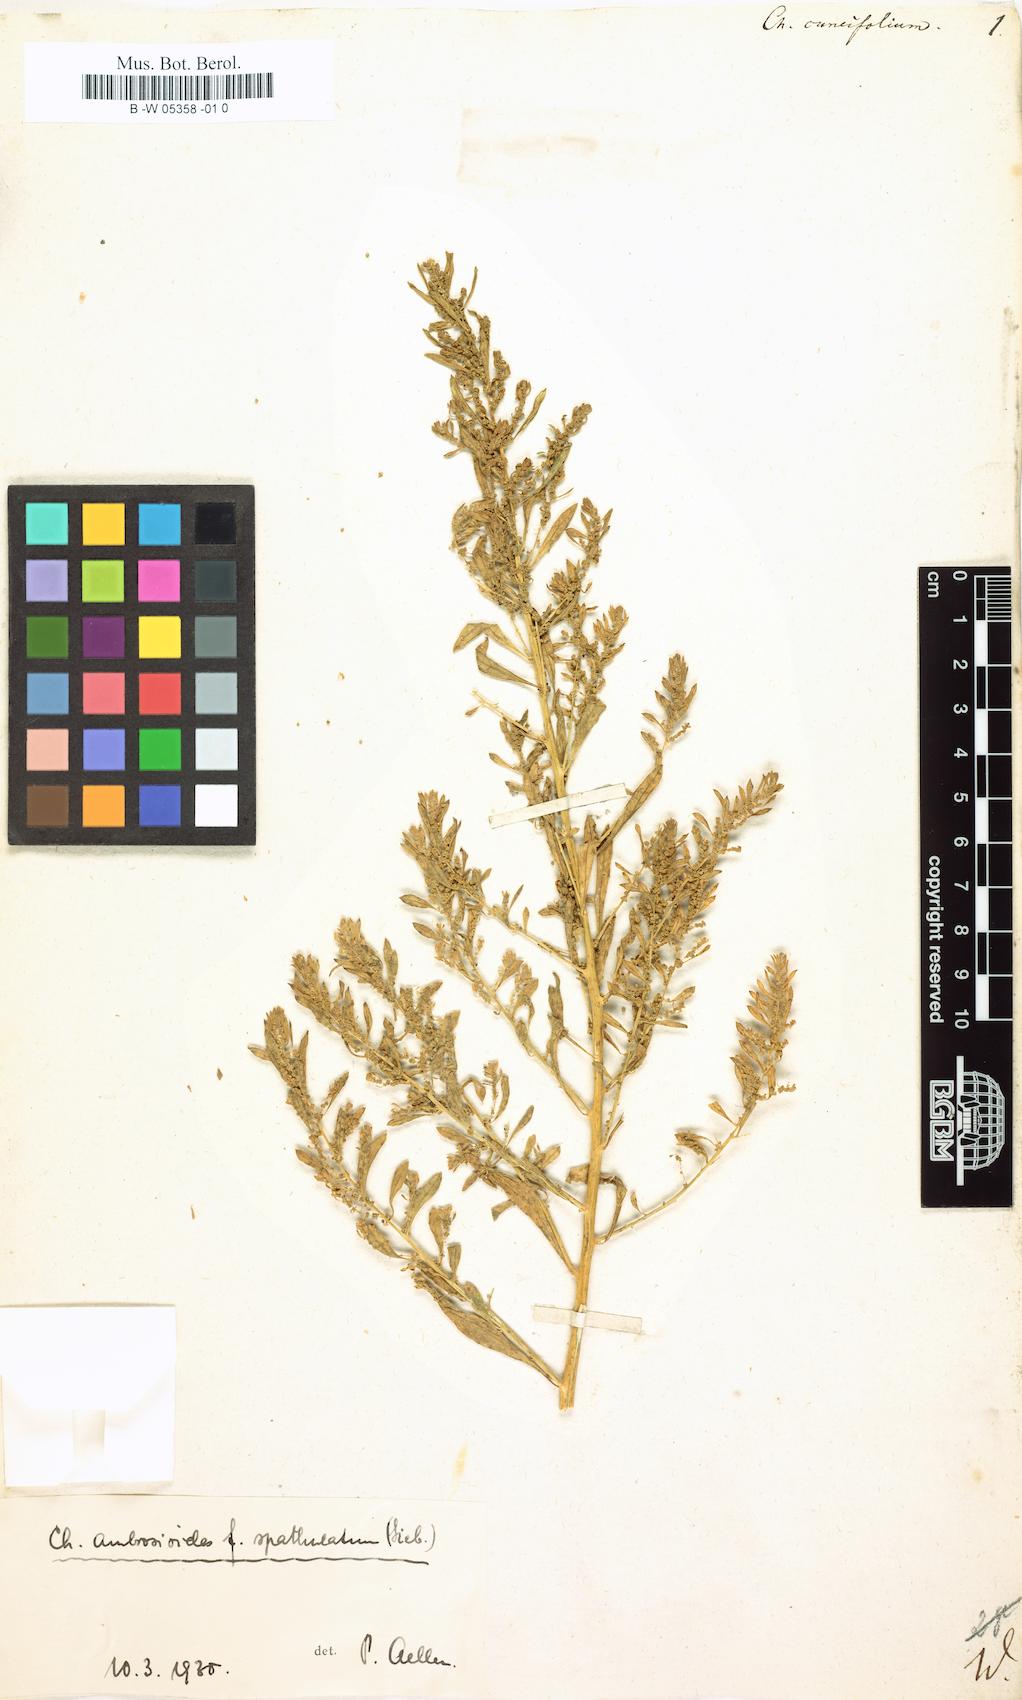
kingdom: Plantae
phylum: Tracheophyta
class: Magnoliopsida
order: Caryophyllales
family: Amaranthaceae
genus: Chenopodium
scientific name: Chenopodium cuneifolium
